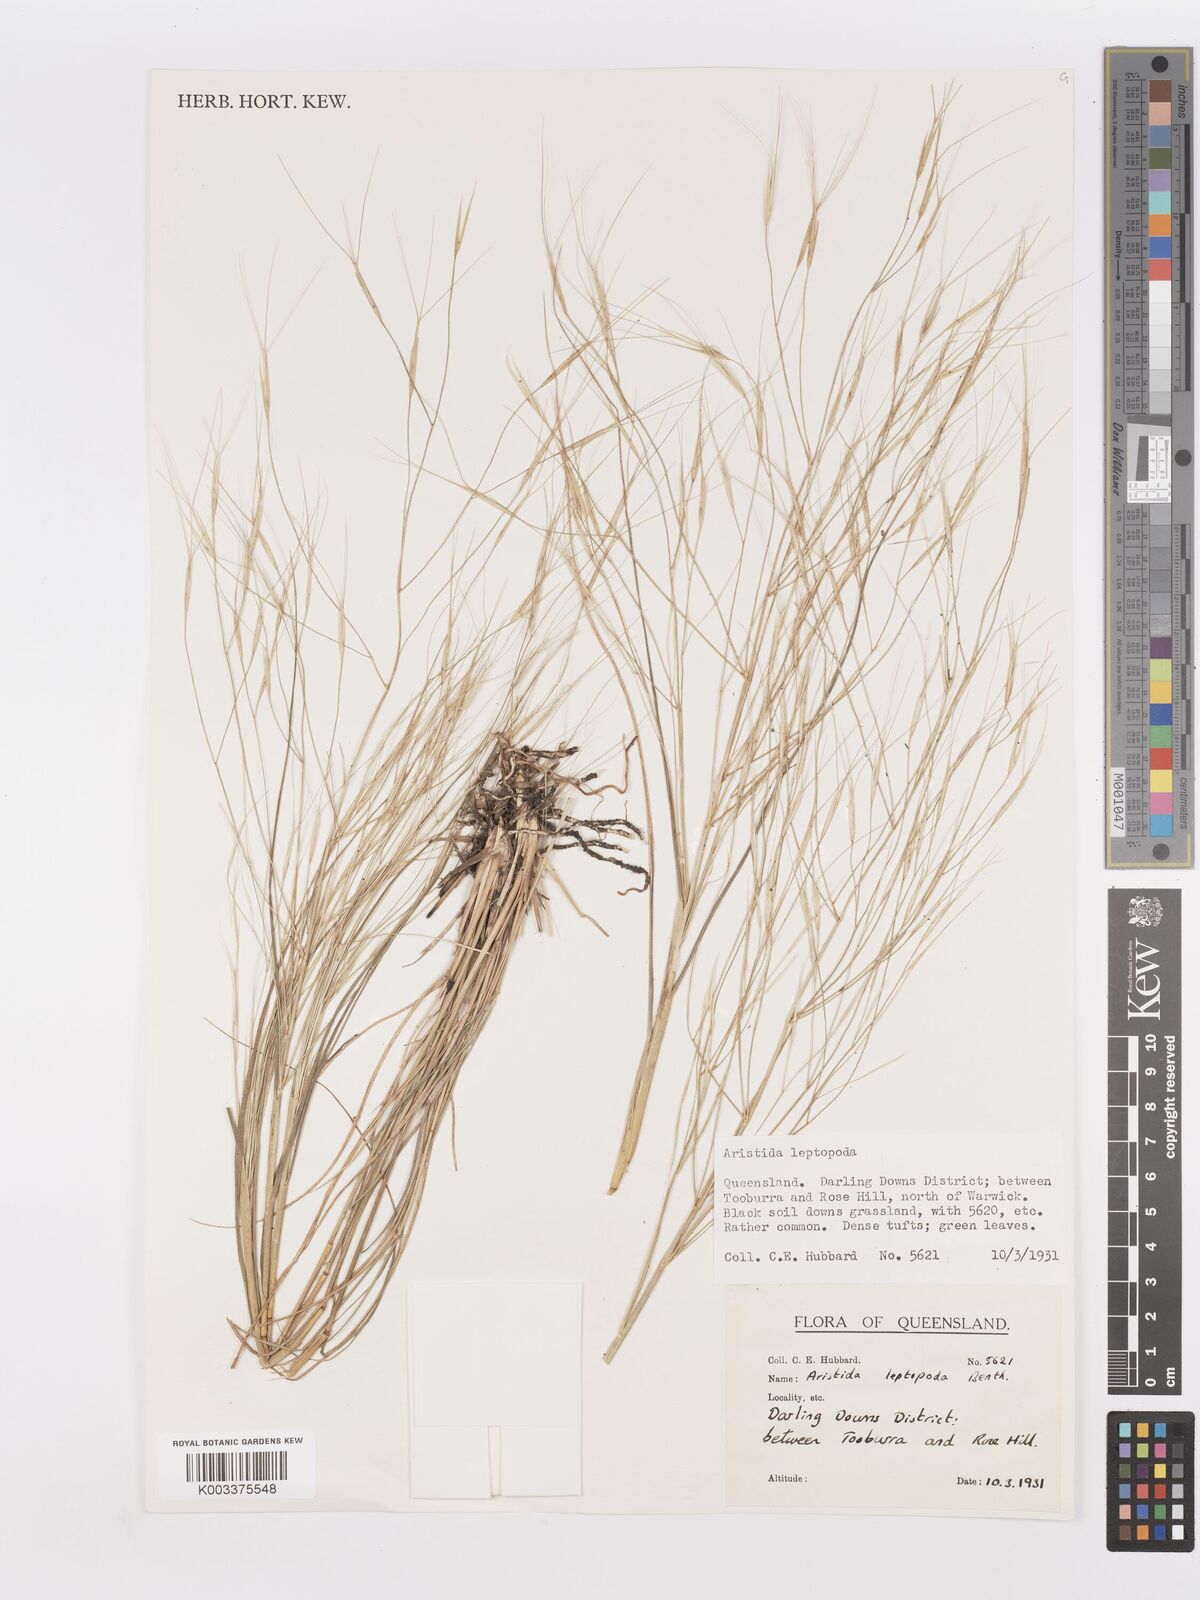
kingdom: Plantae
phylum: Tracheophyta
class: Liliopsida
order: Poales
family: Poaceae
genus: Aristida
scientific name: Aristida leptopoda
